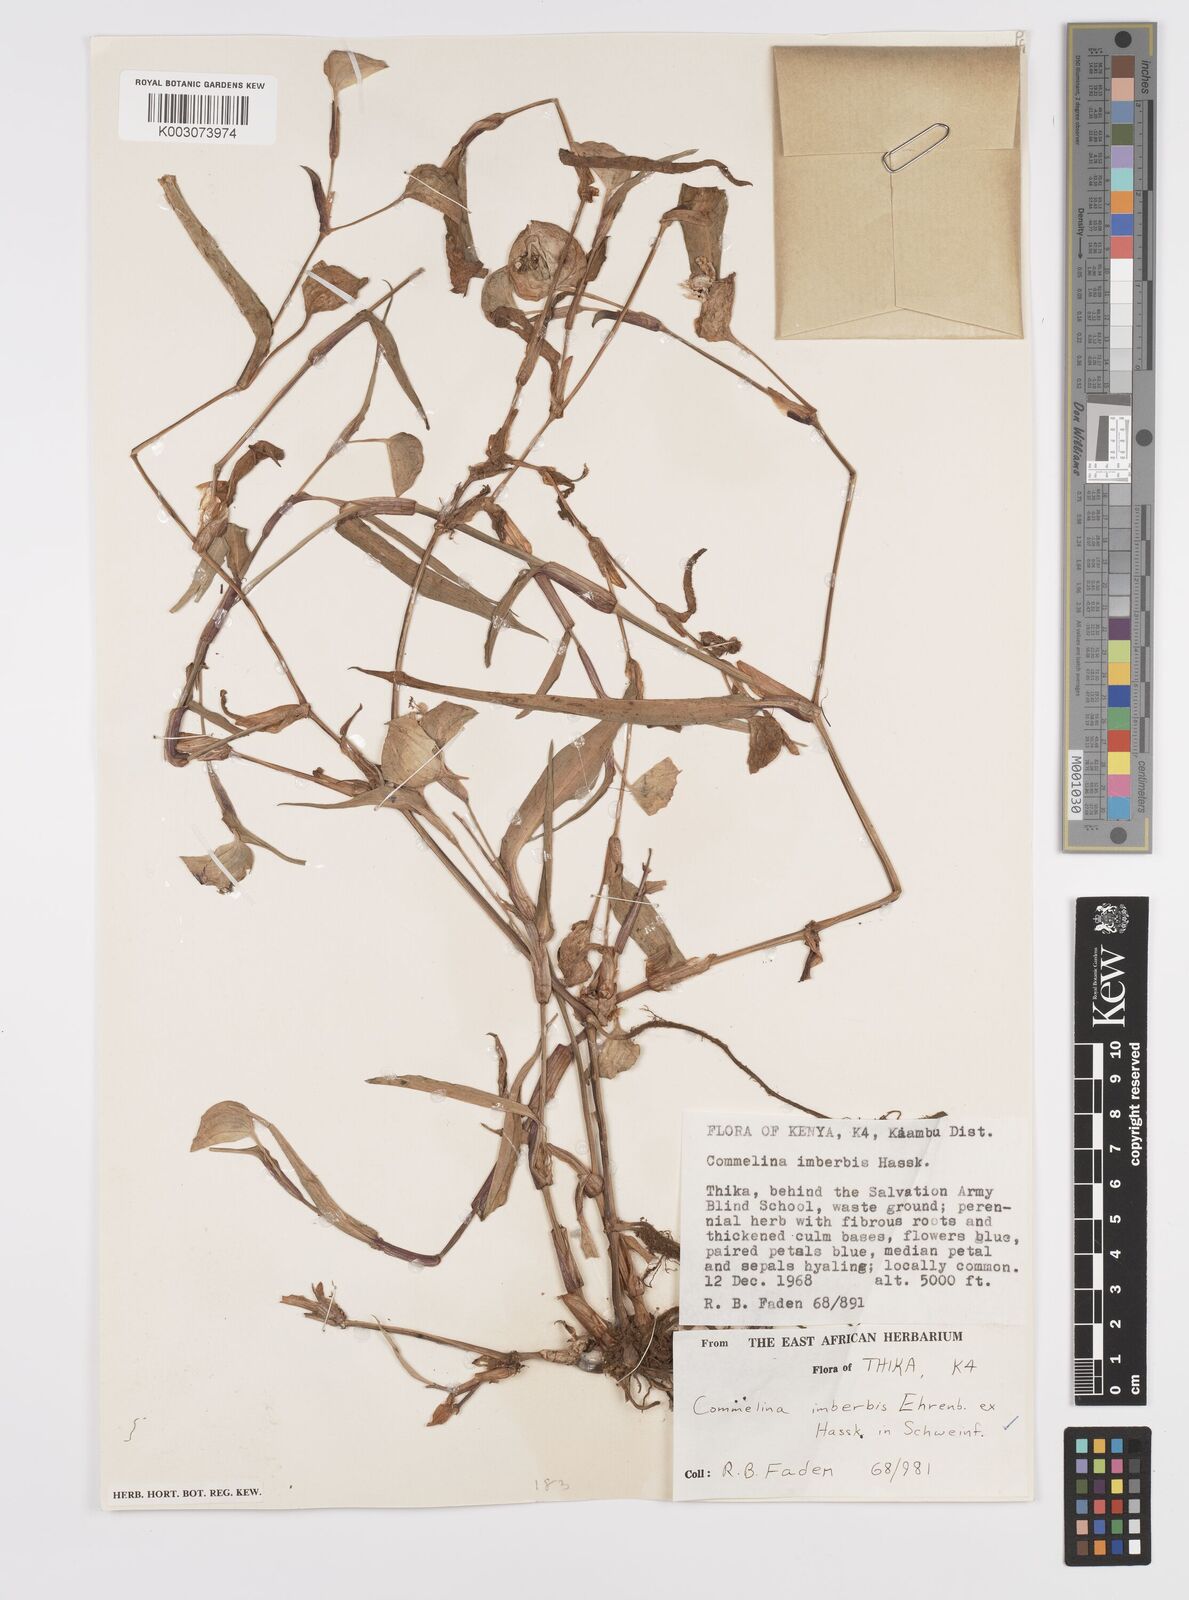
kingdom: Plantae
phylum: Tracheophyta
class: Liliopsida
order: Commelinales
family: Commelinaceae
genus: Commelina
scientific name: Commelina imberbis
